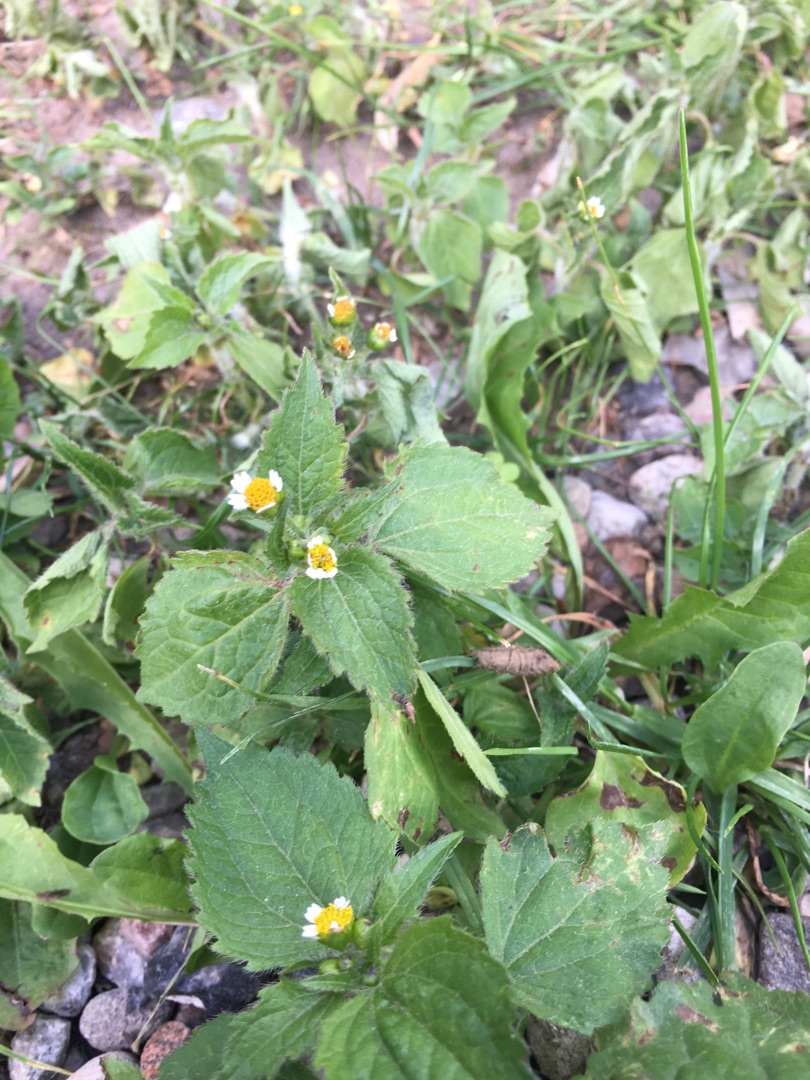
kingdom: Plantae
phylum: Tracheophyta
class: Magnoliopsida
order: Asterales
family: Asteraceae
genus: Galinsoga
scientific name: Galinsoga quadriradiata
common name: Kirtel-kortstråle
